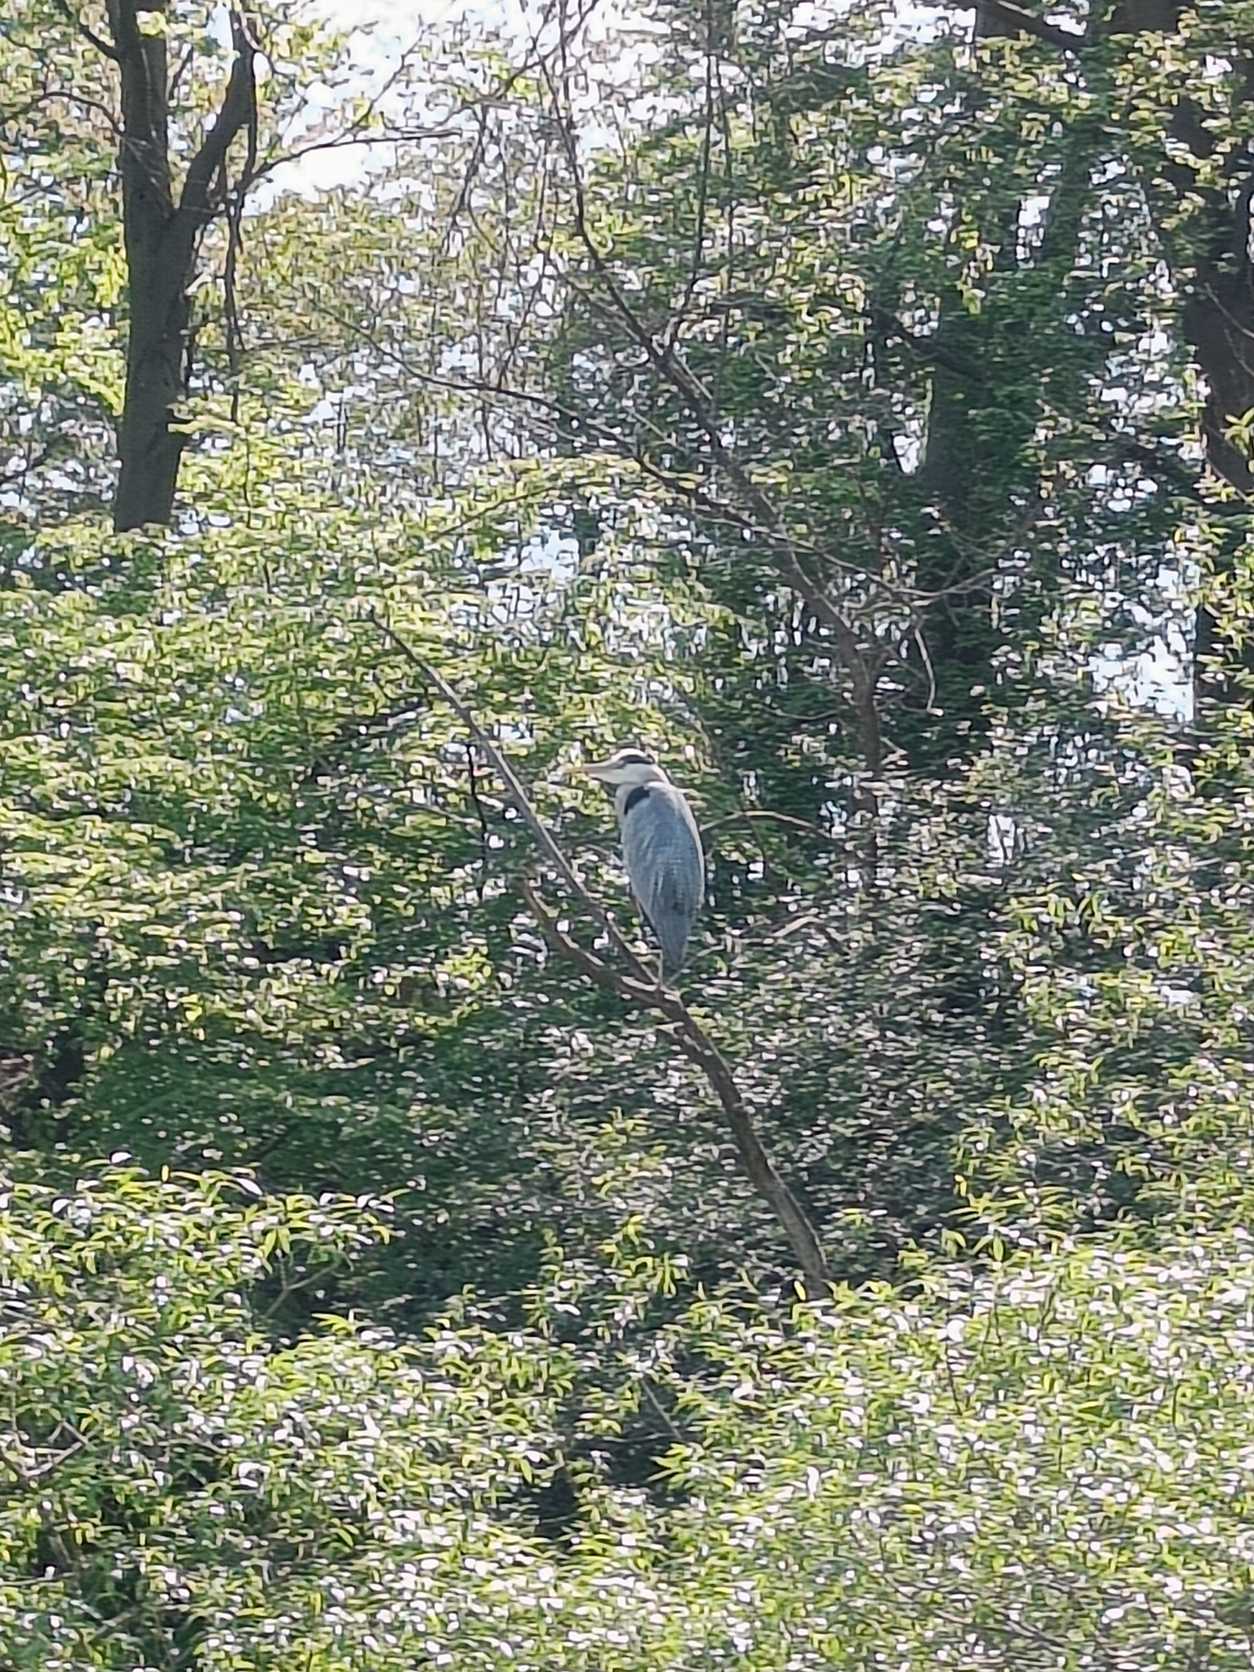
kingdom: Animalia
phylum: Chordata
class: Aves
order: Pelecaniformes
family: Ardeidae
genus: Ardea
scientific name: Ardea cinerea
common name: Fiskehejre
